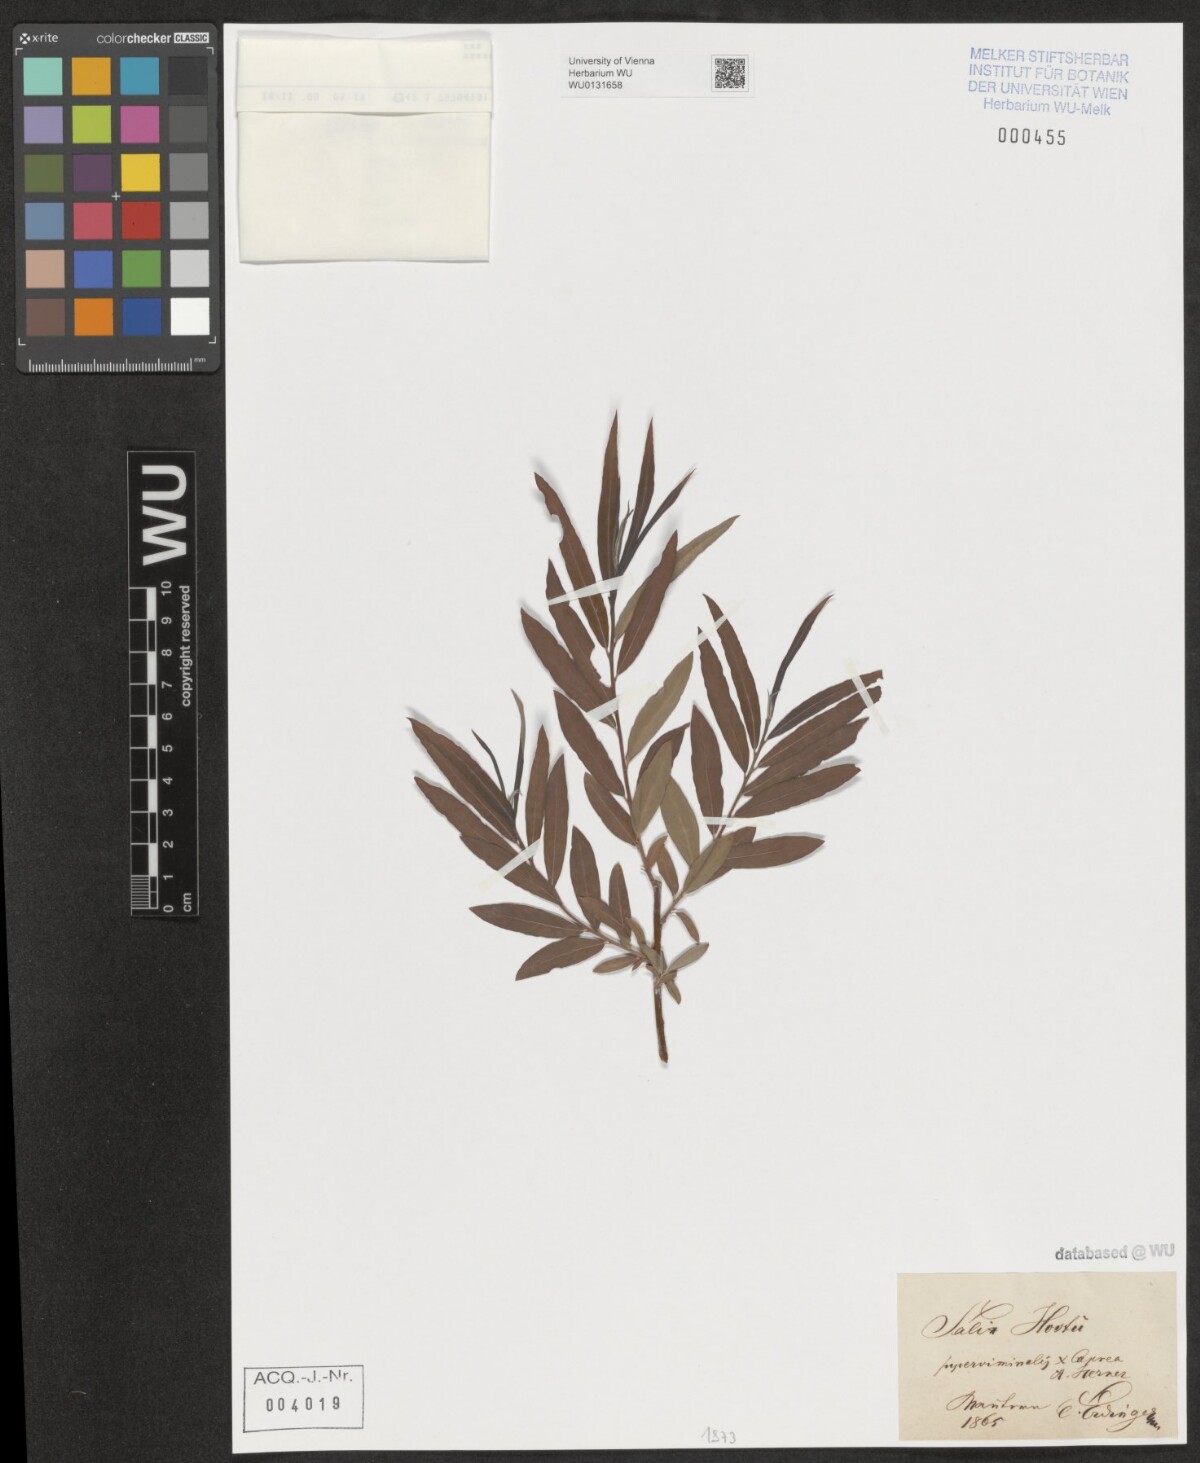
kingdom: Plantae
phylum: Tracheophyta
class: Magnoliopsida
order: Malpighiales
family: Salicaceae
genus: Salix
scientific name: Salix smithiana
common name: Silky-leaved osier
